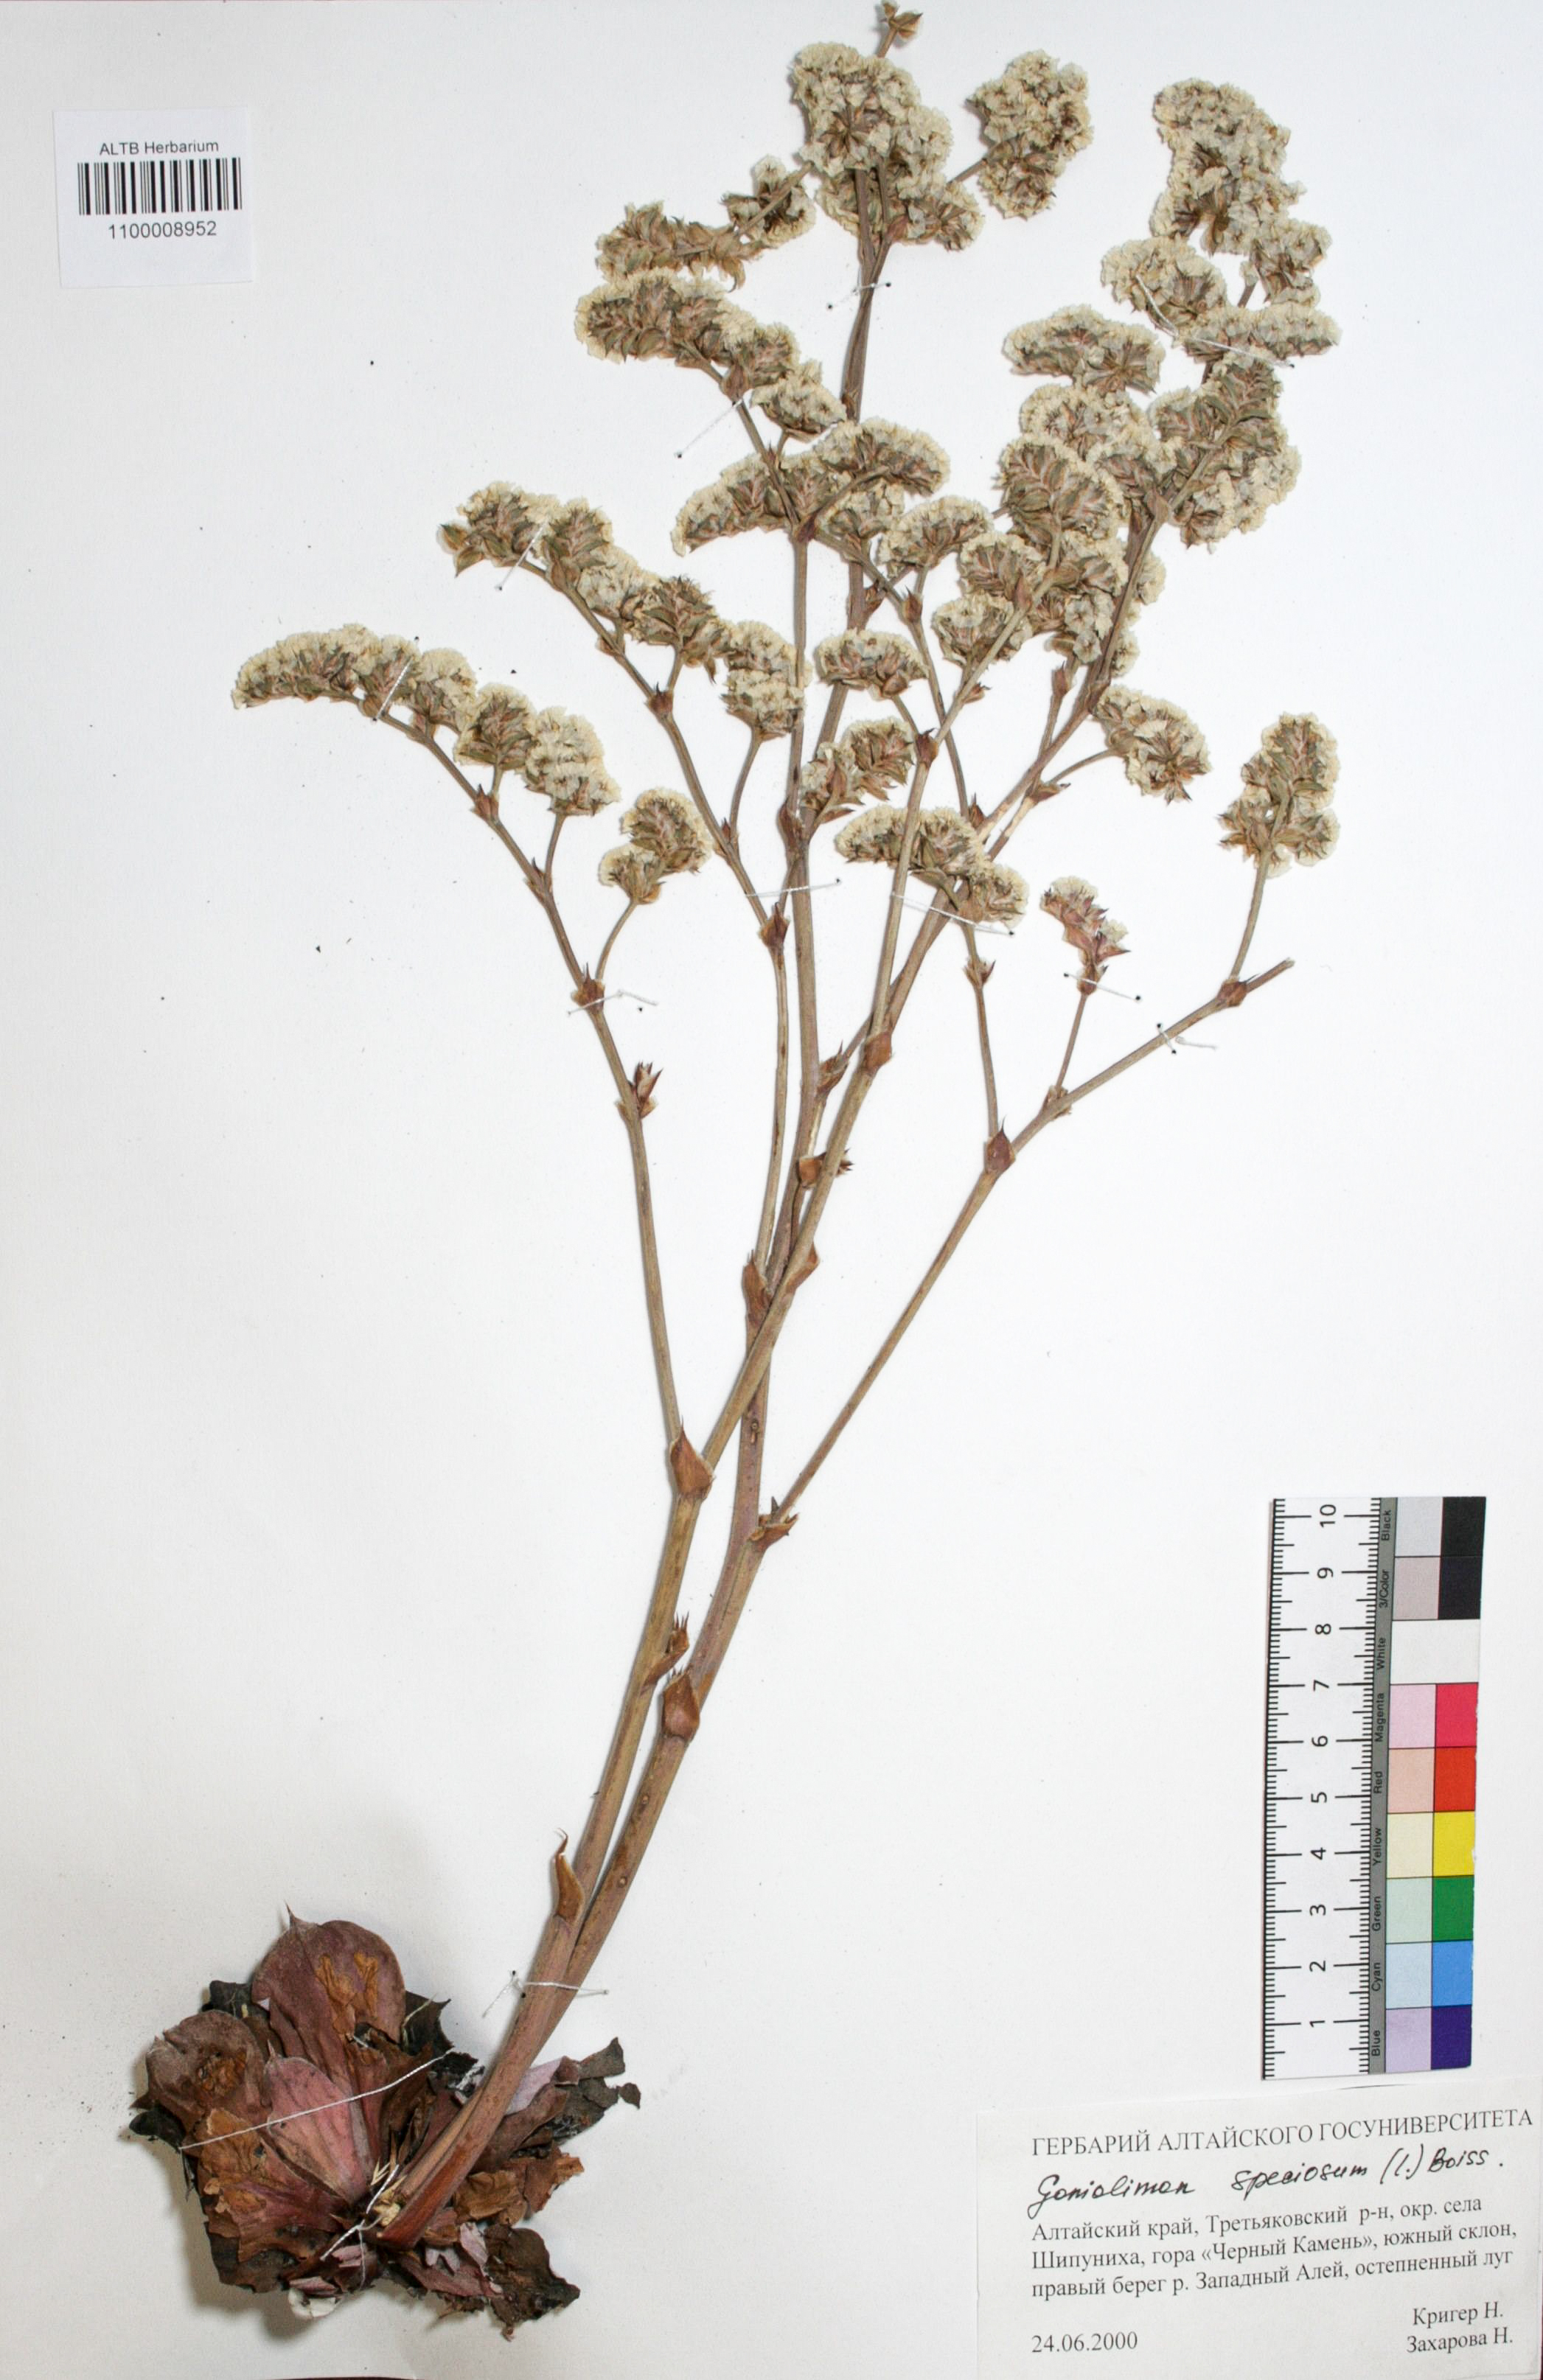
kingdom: Plantae
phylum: Tracheophyta
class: Magnoliopsida
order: Caryophyllales
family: Plumbaginaceae
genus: Goniolimon
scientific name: Goniolimon speciosum
